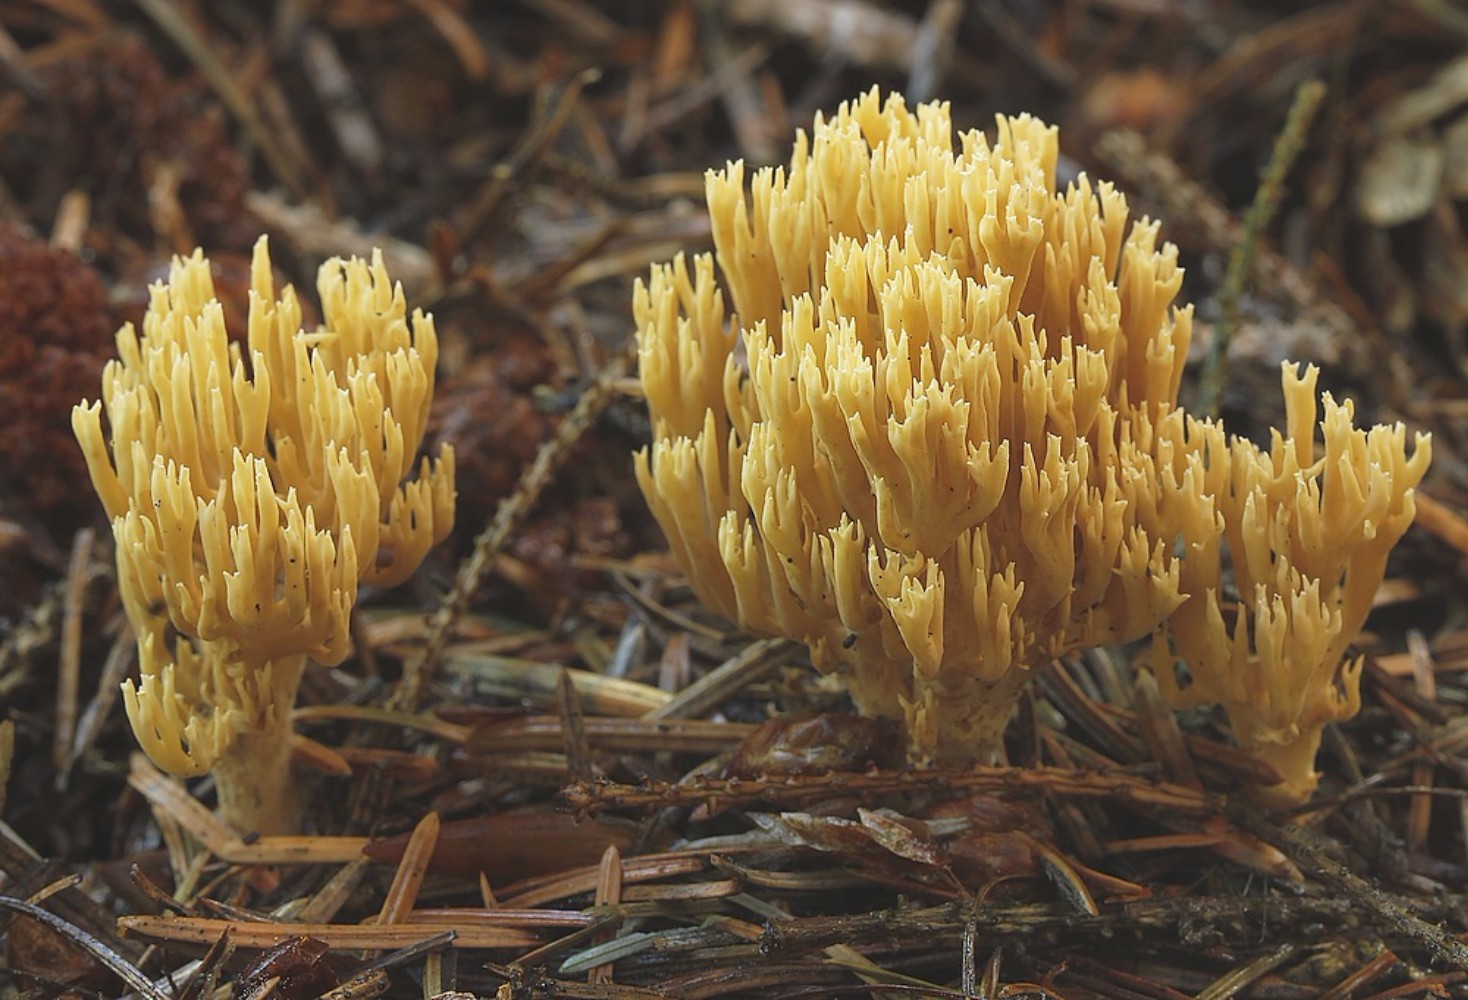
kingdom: Fungi
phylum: Basidiomycota
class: Agaricomycetes
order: Gomphales
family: Gomphaceae
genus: Phaeoclavulina
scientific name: Phaeoclavulina eumorpha
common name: gran-koralsvamp
